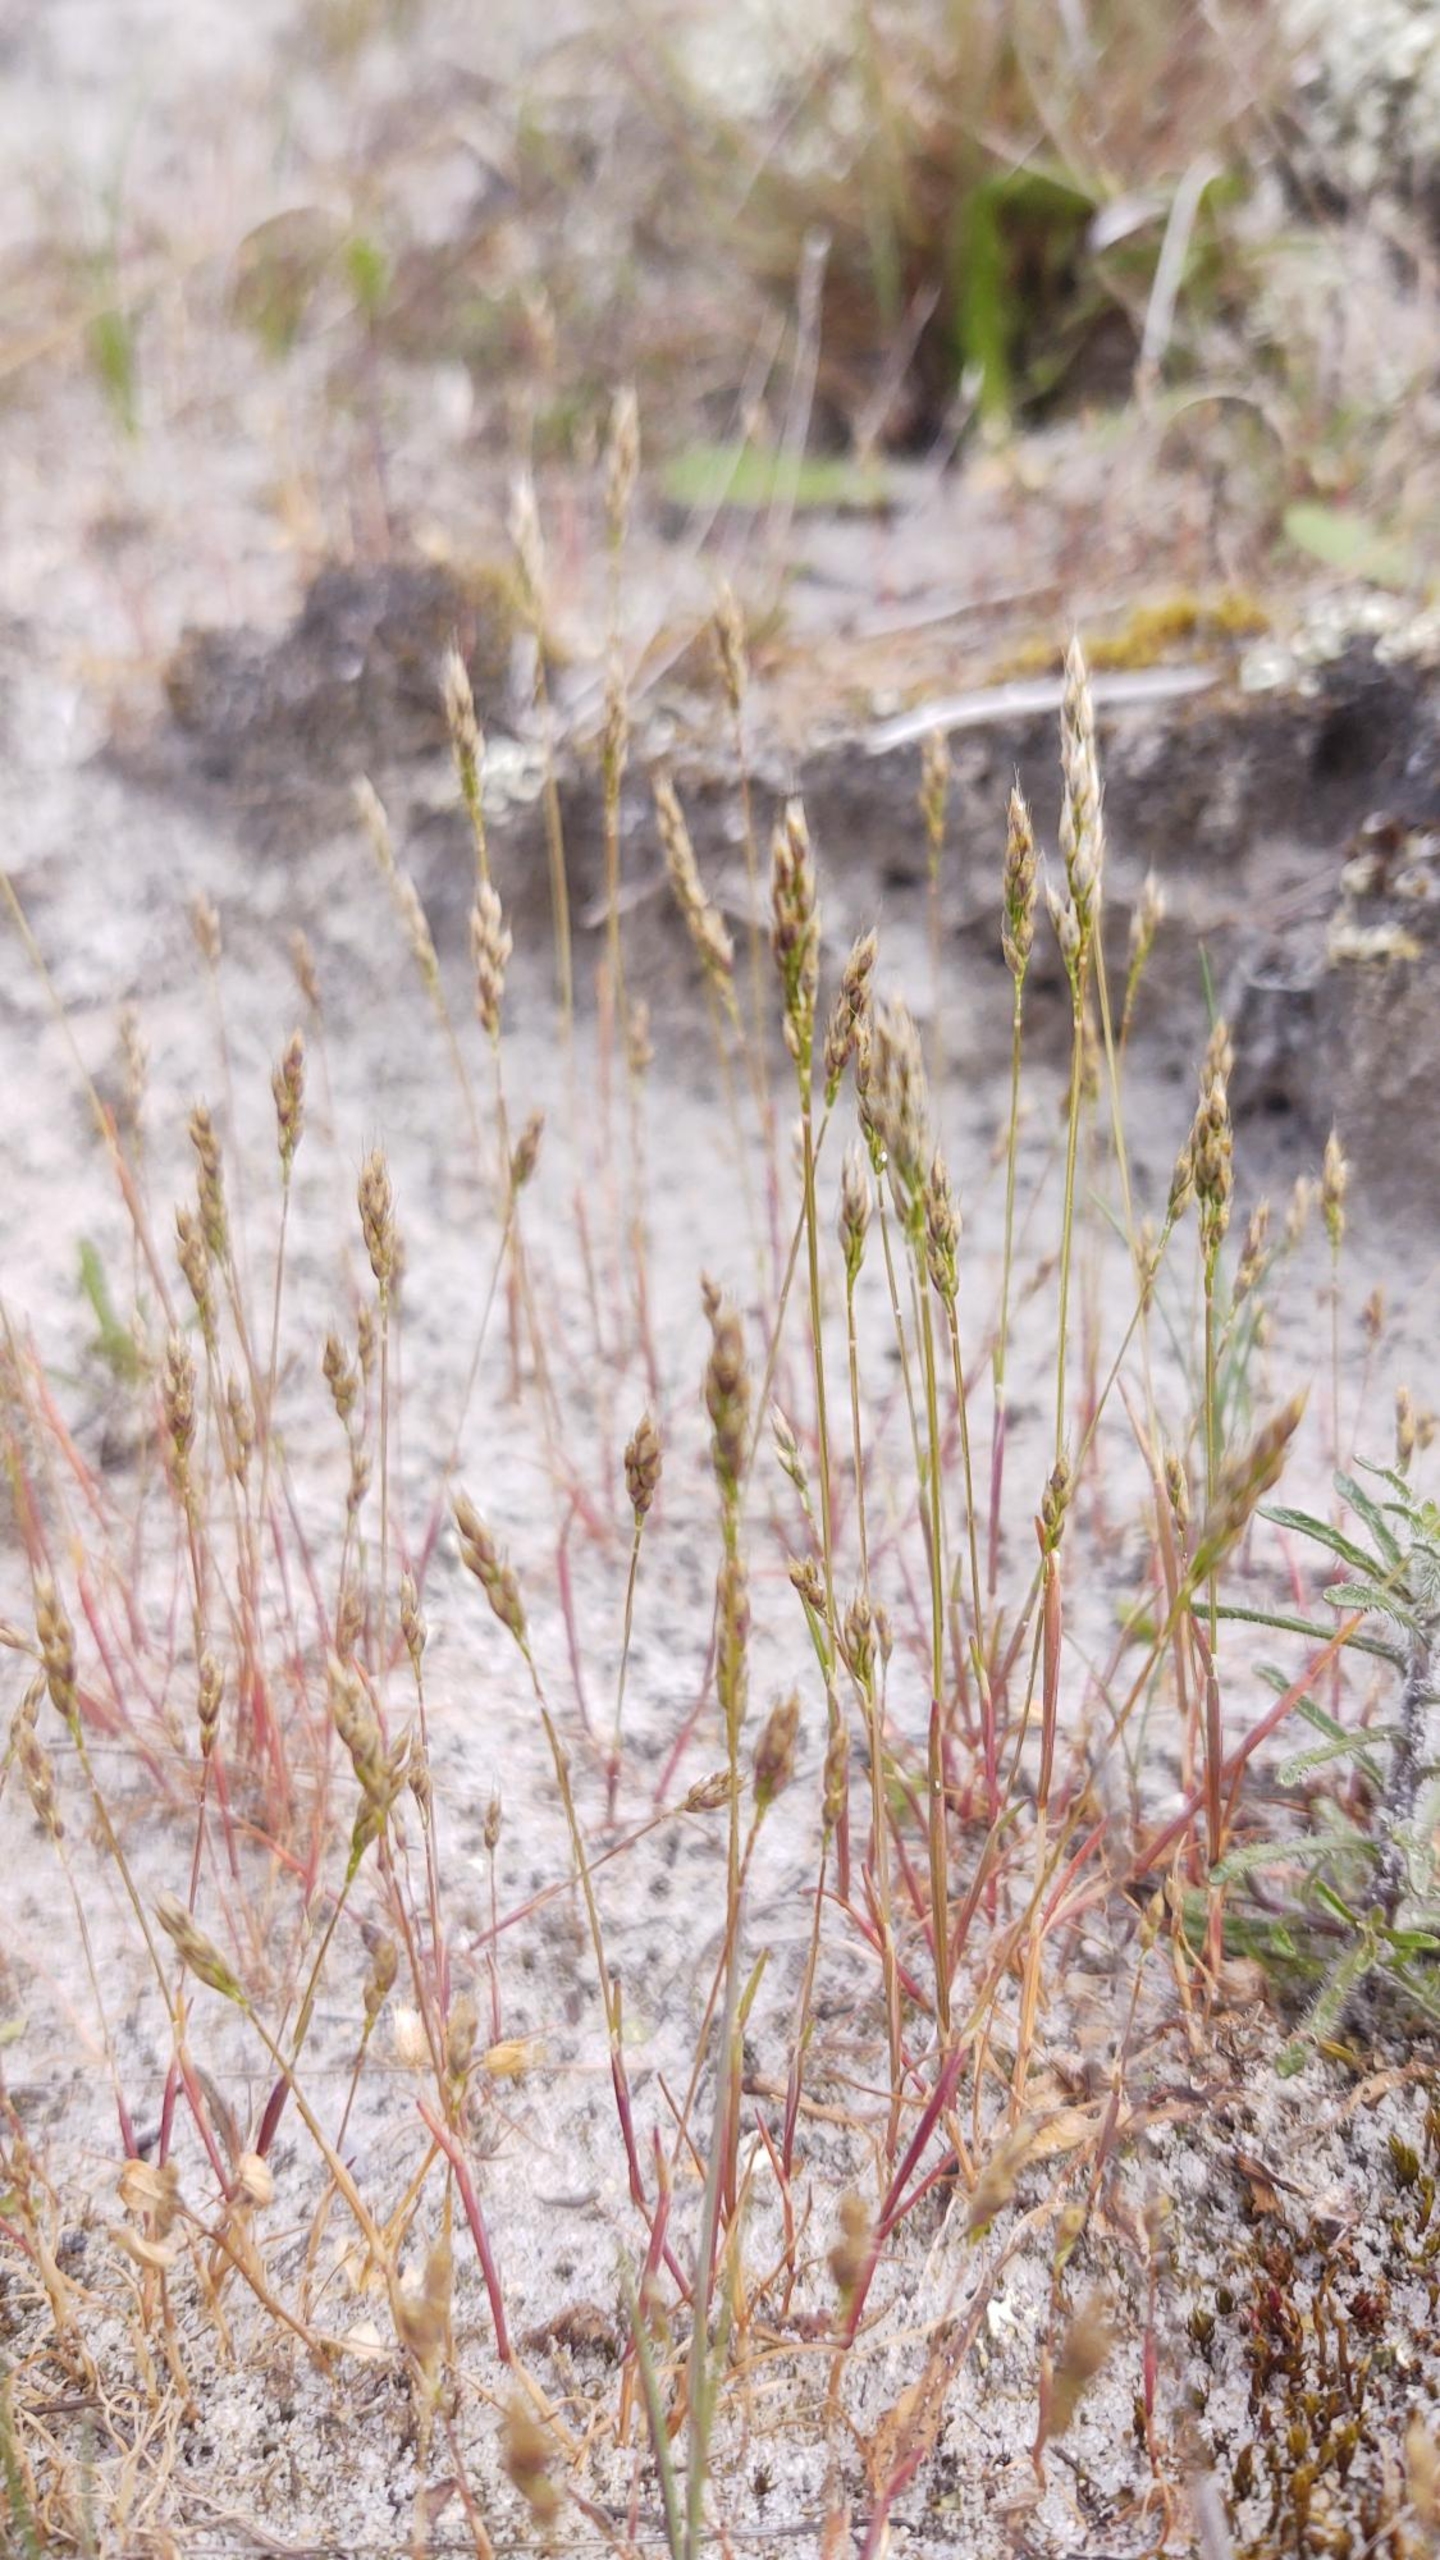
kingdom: Plantae
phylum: Tracheophyta
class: Liliopsida
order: Poales
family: Poaceae
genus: Aira
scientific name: Aira praecox
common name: Tidlig dværgbunke
